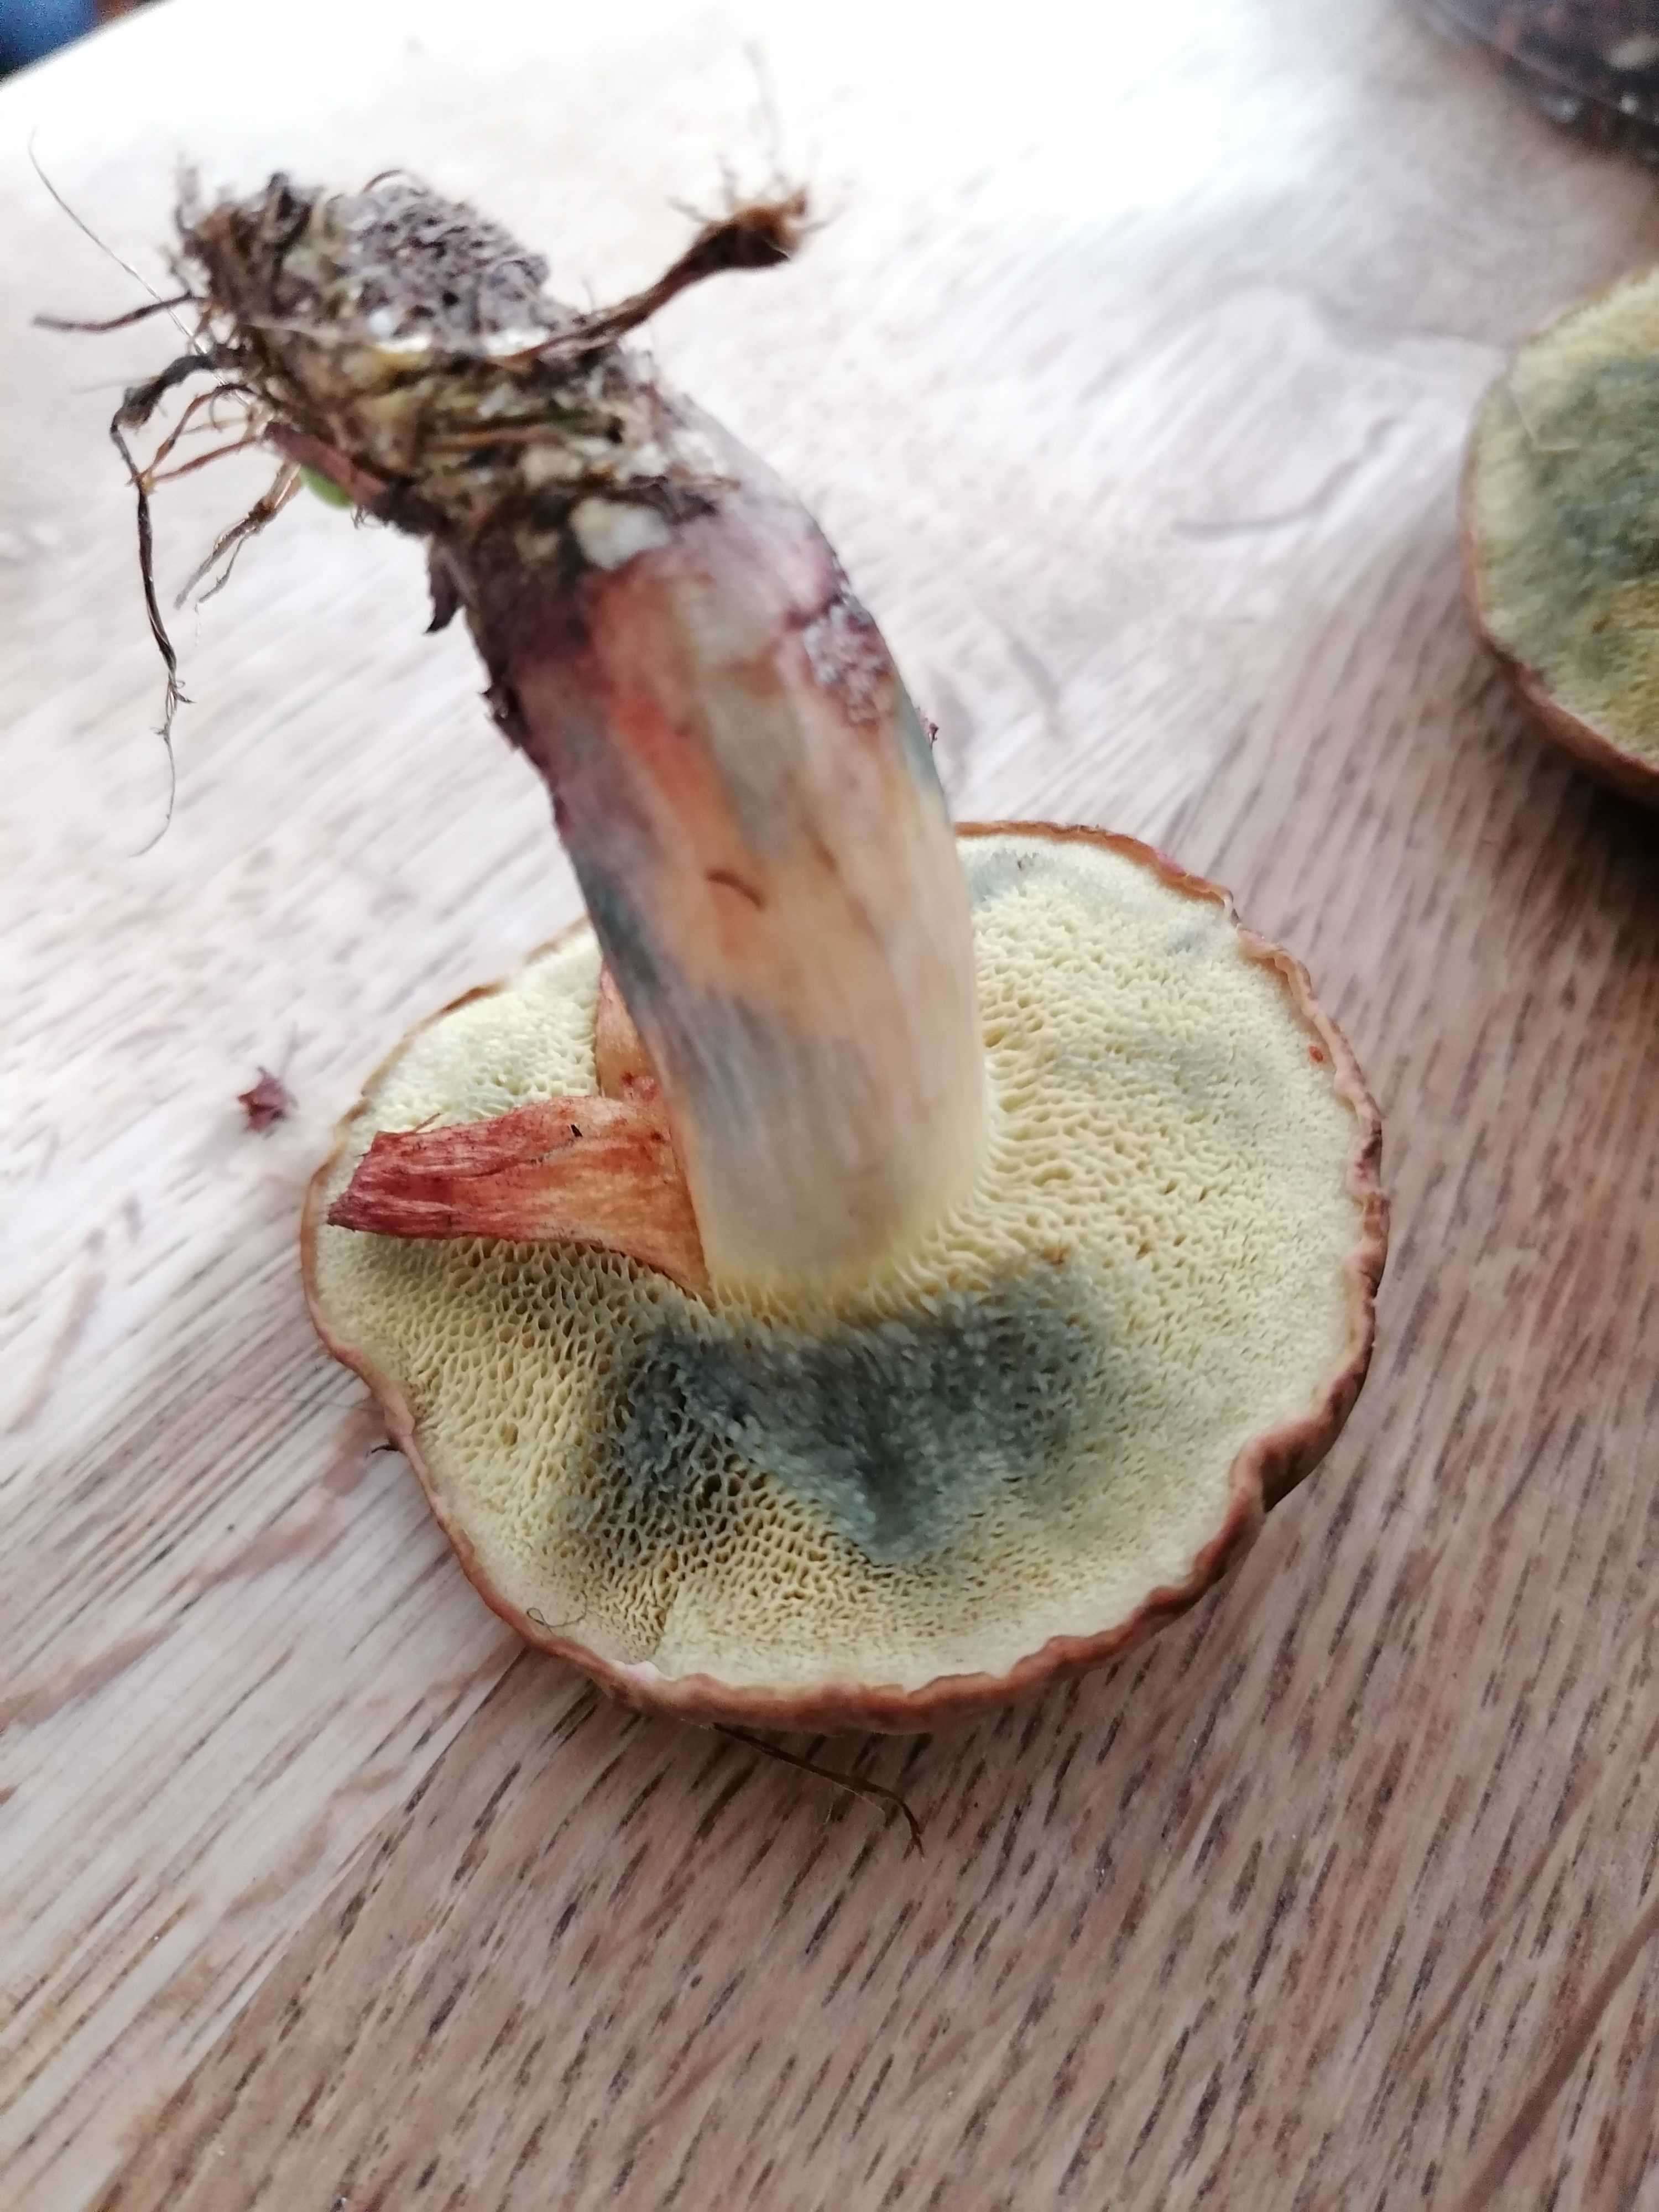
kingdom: Fungi
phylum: Basidiomycota
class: Agaricomycetes
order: Boletales
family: Boletaceae
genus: Xerocomellus
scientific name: Xerocomellus cisalpinus
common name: finsprukken rørhat
